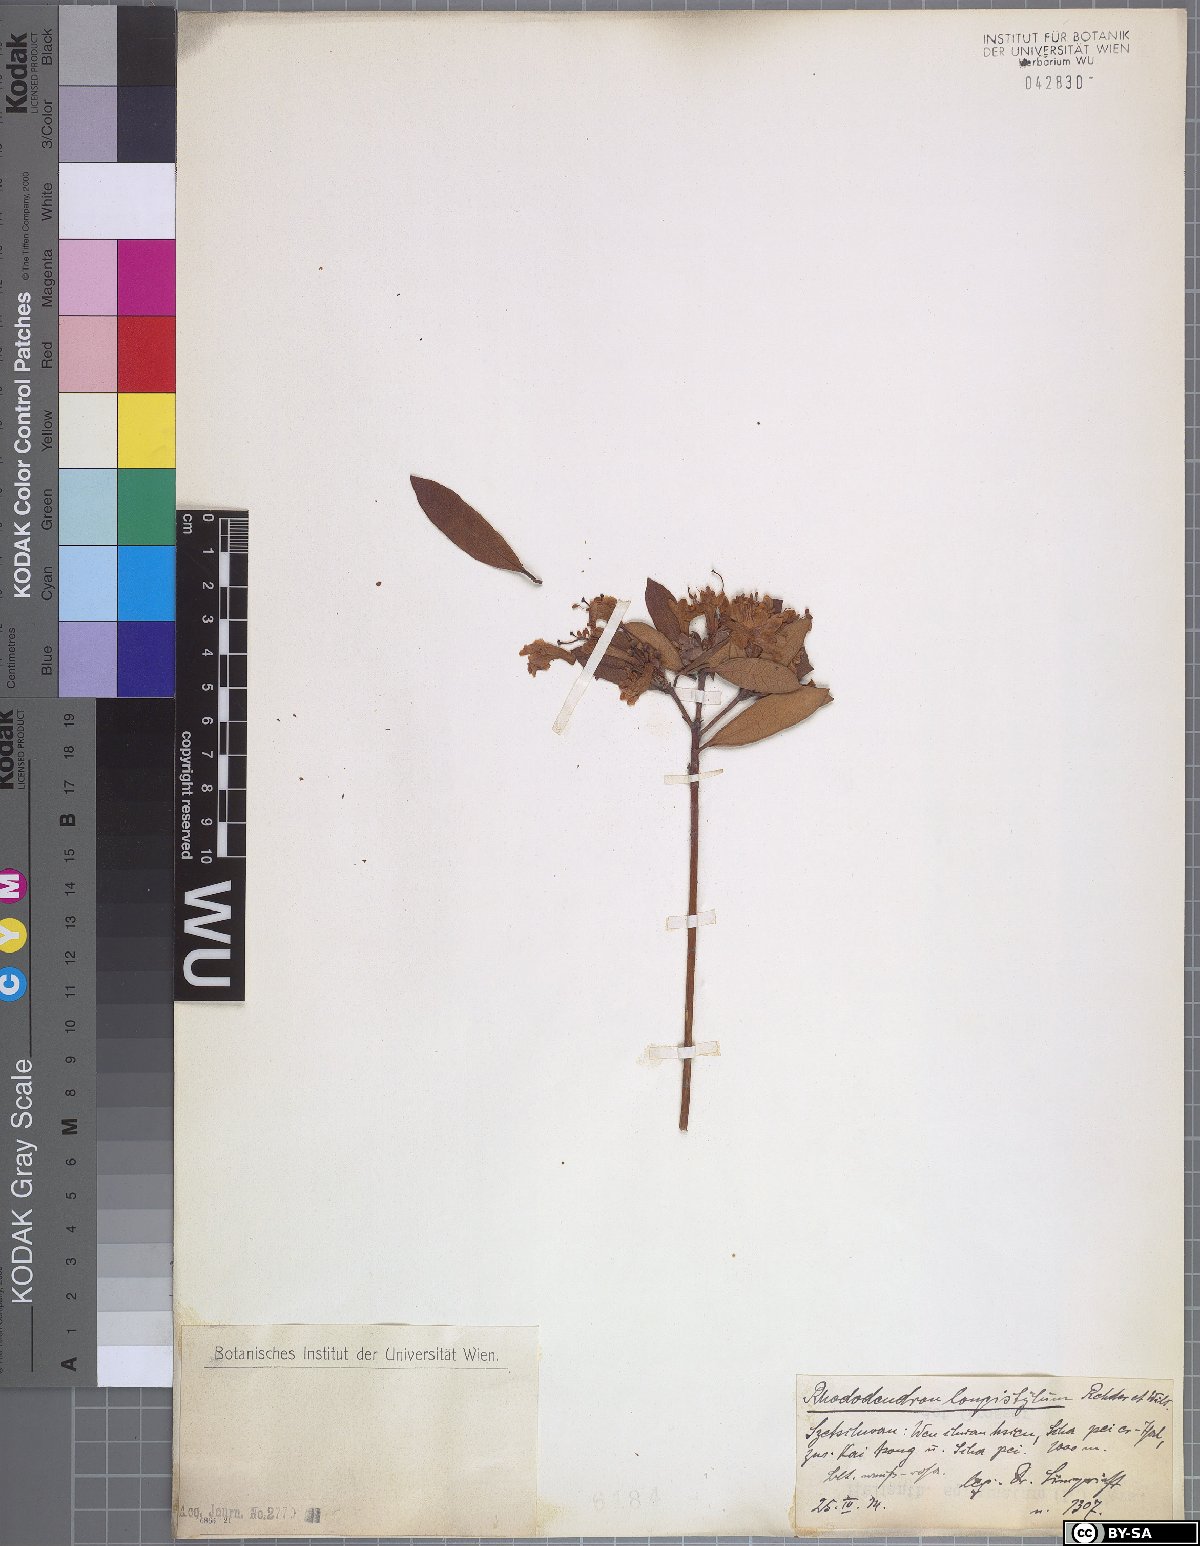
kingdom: Plantae
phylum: Tracheophyta
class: Magnoliopsida
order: Ericales
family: Ericaceae
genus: Rhododendron
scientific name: Rhododendron longistylum
